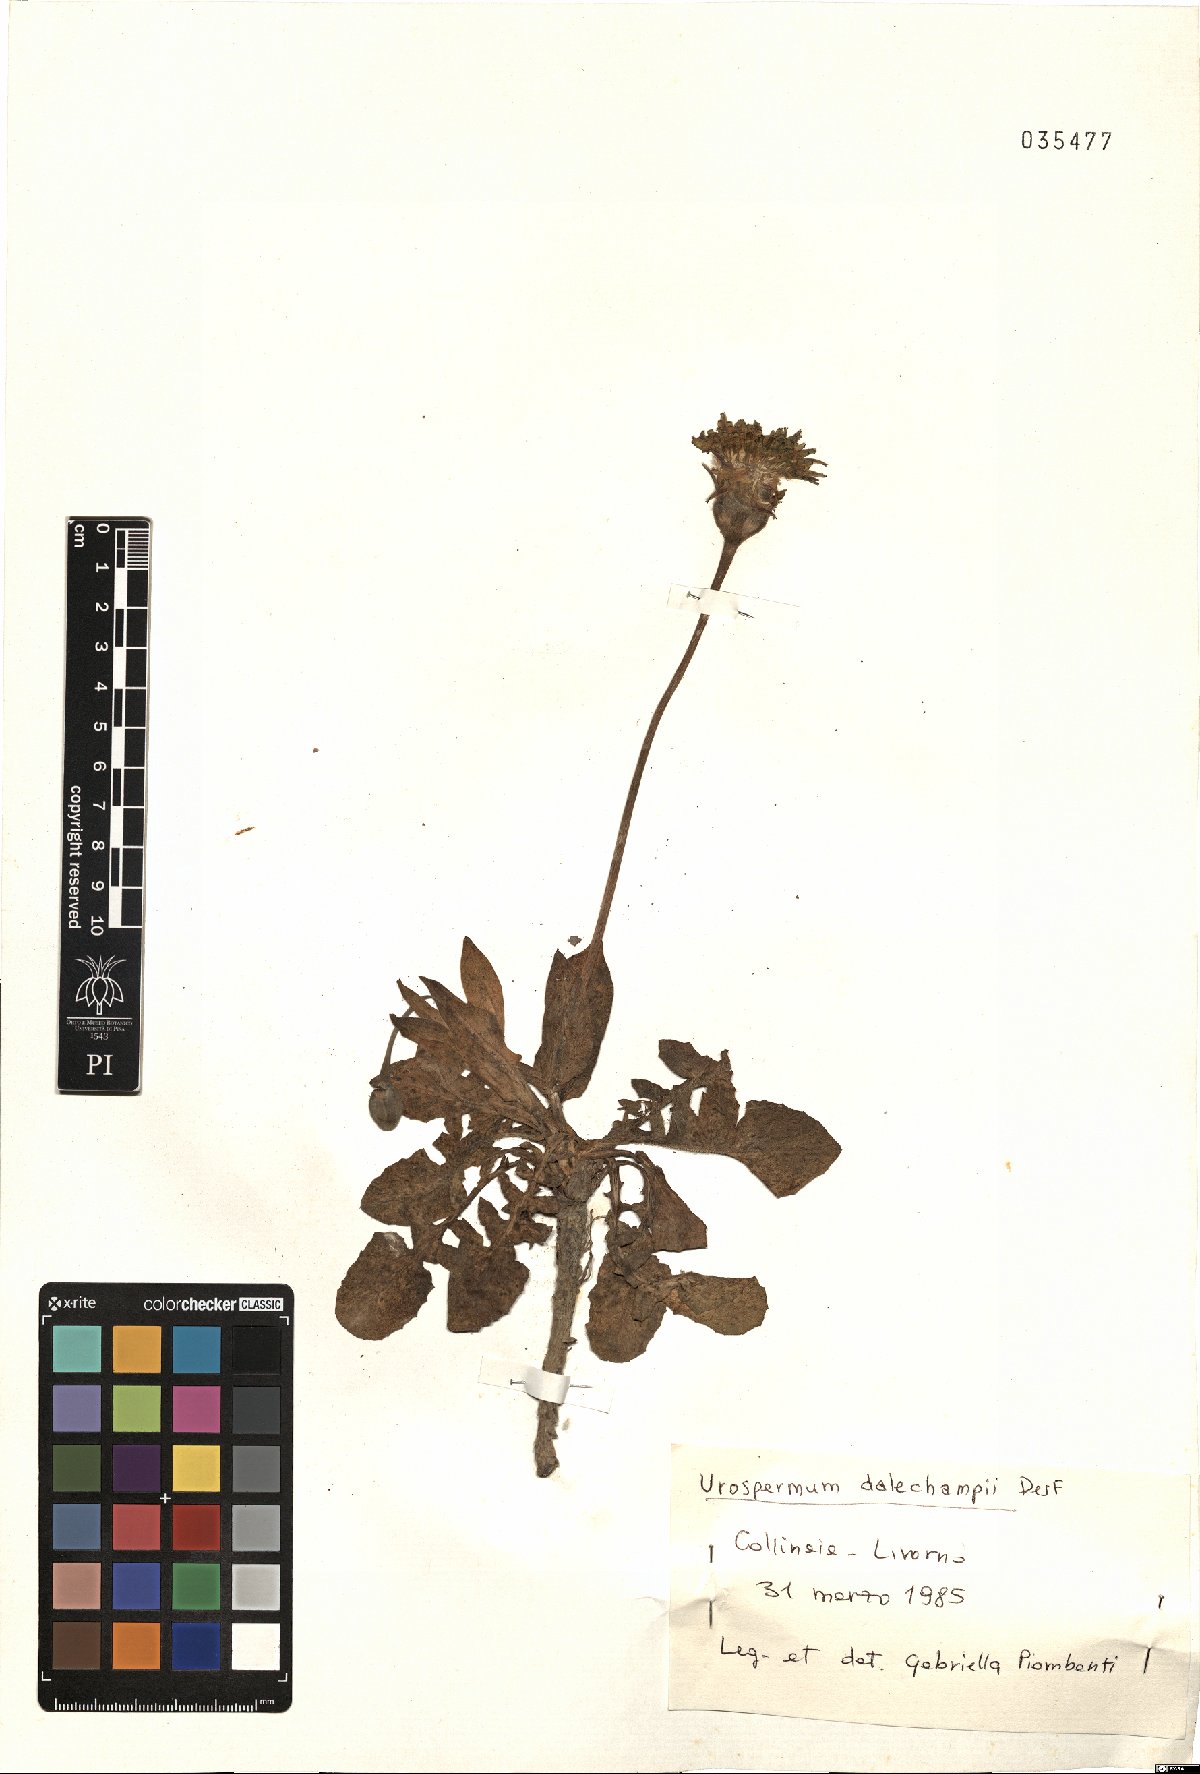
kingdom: Plantae
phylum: Tracheophyta
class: Magnoliopsida
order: Asterales
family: Asteraceae
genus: Urospermum
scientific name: Urospermum dalechampii
